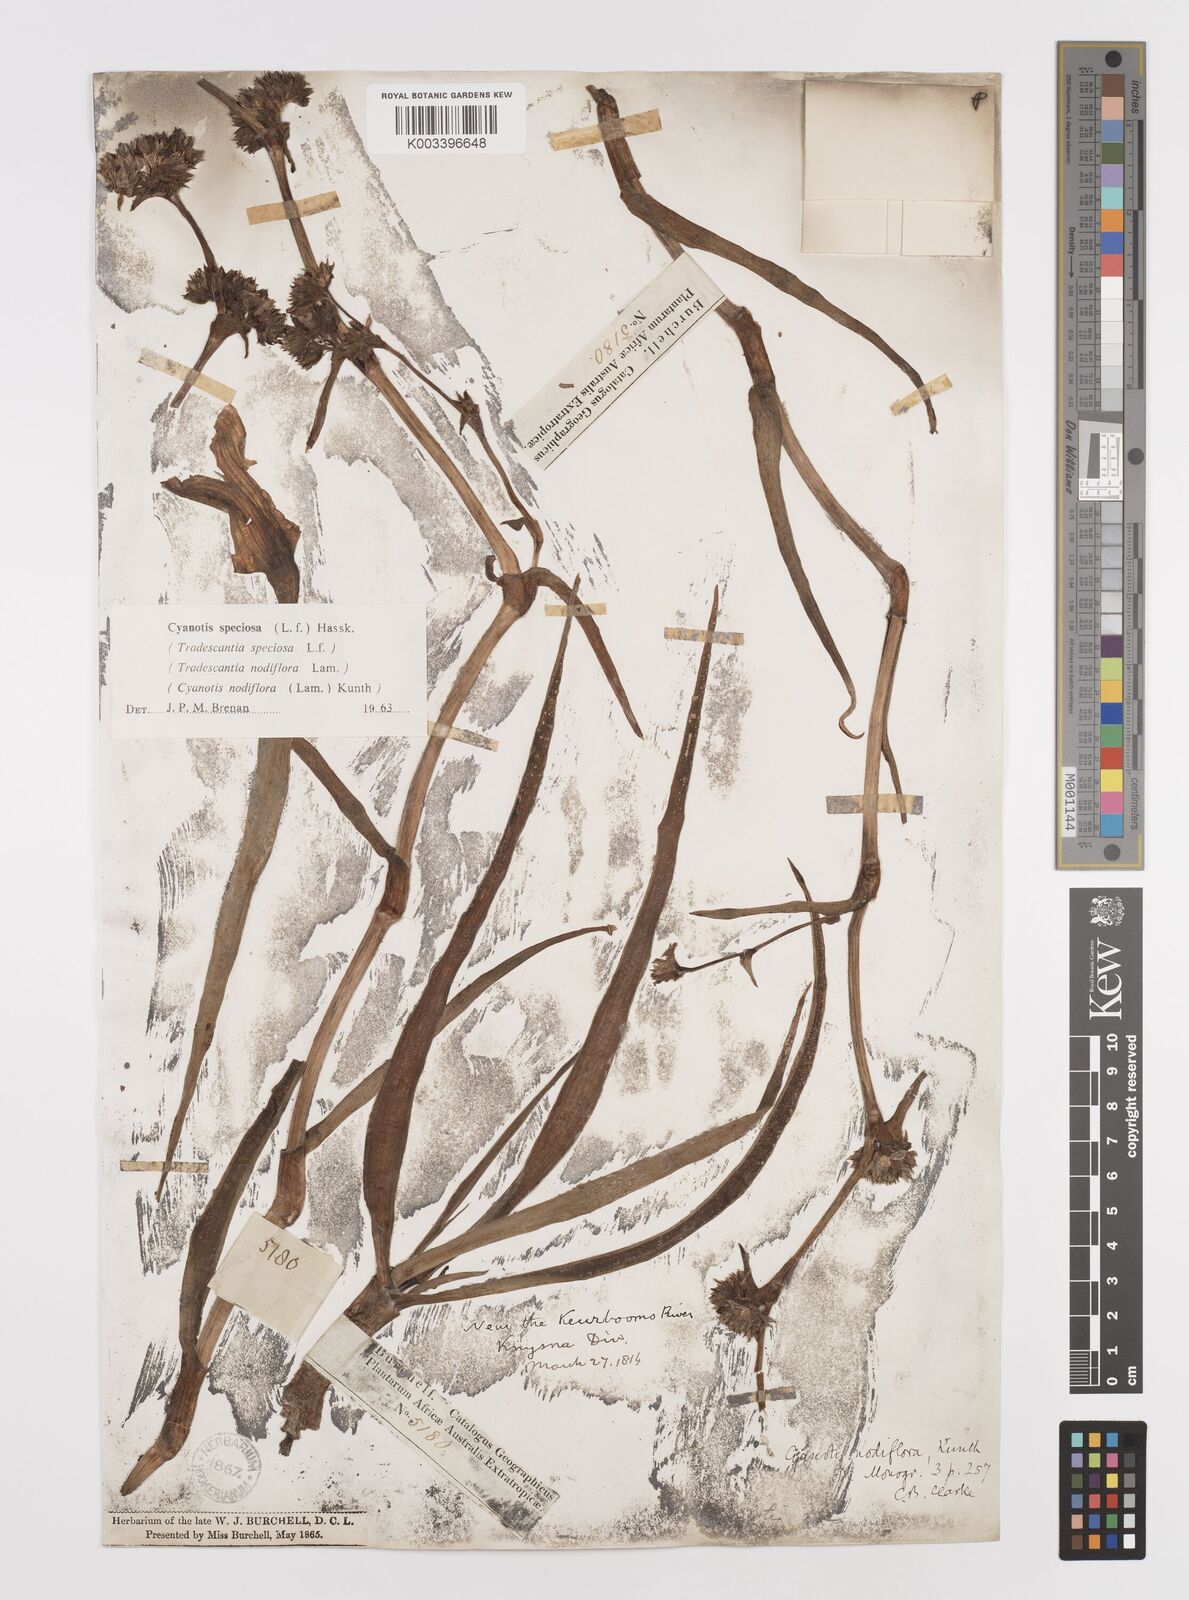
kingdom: Plantae
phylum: Tracheophyta
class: Liliopsida
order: Commelinales
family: Commelinaceae
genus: Cyanotis
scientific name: Cyanotis speciosa
